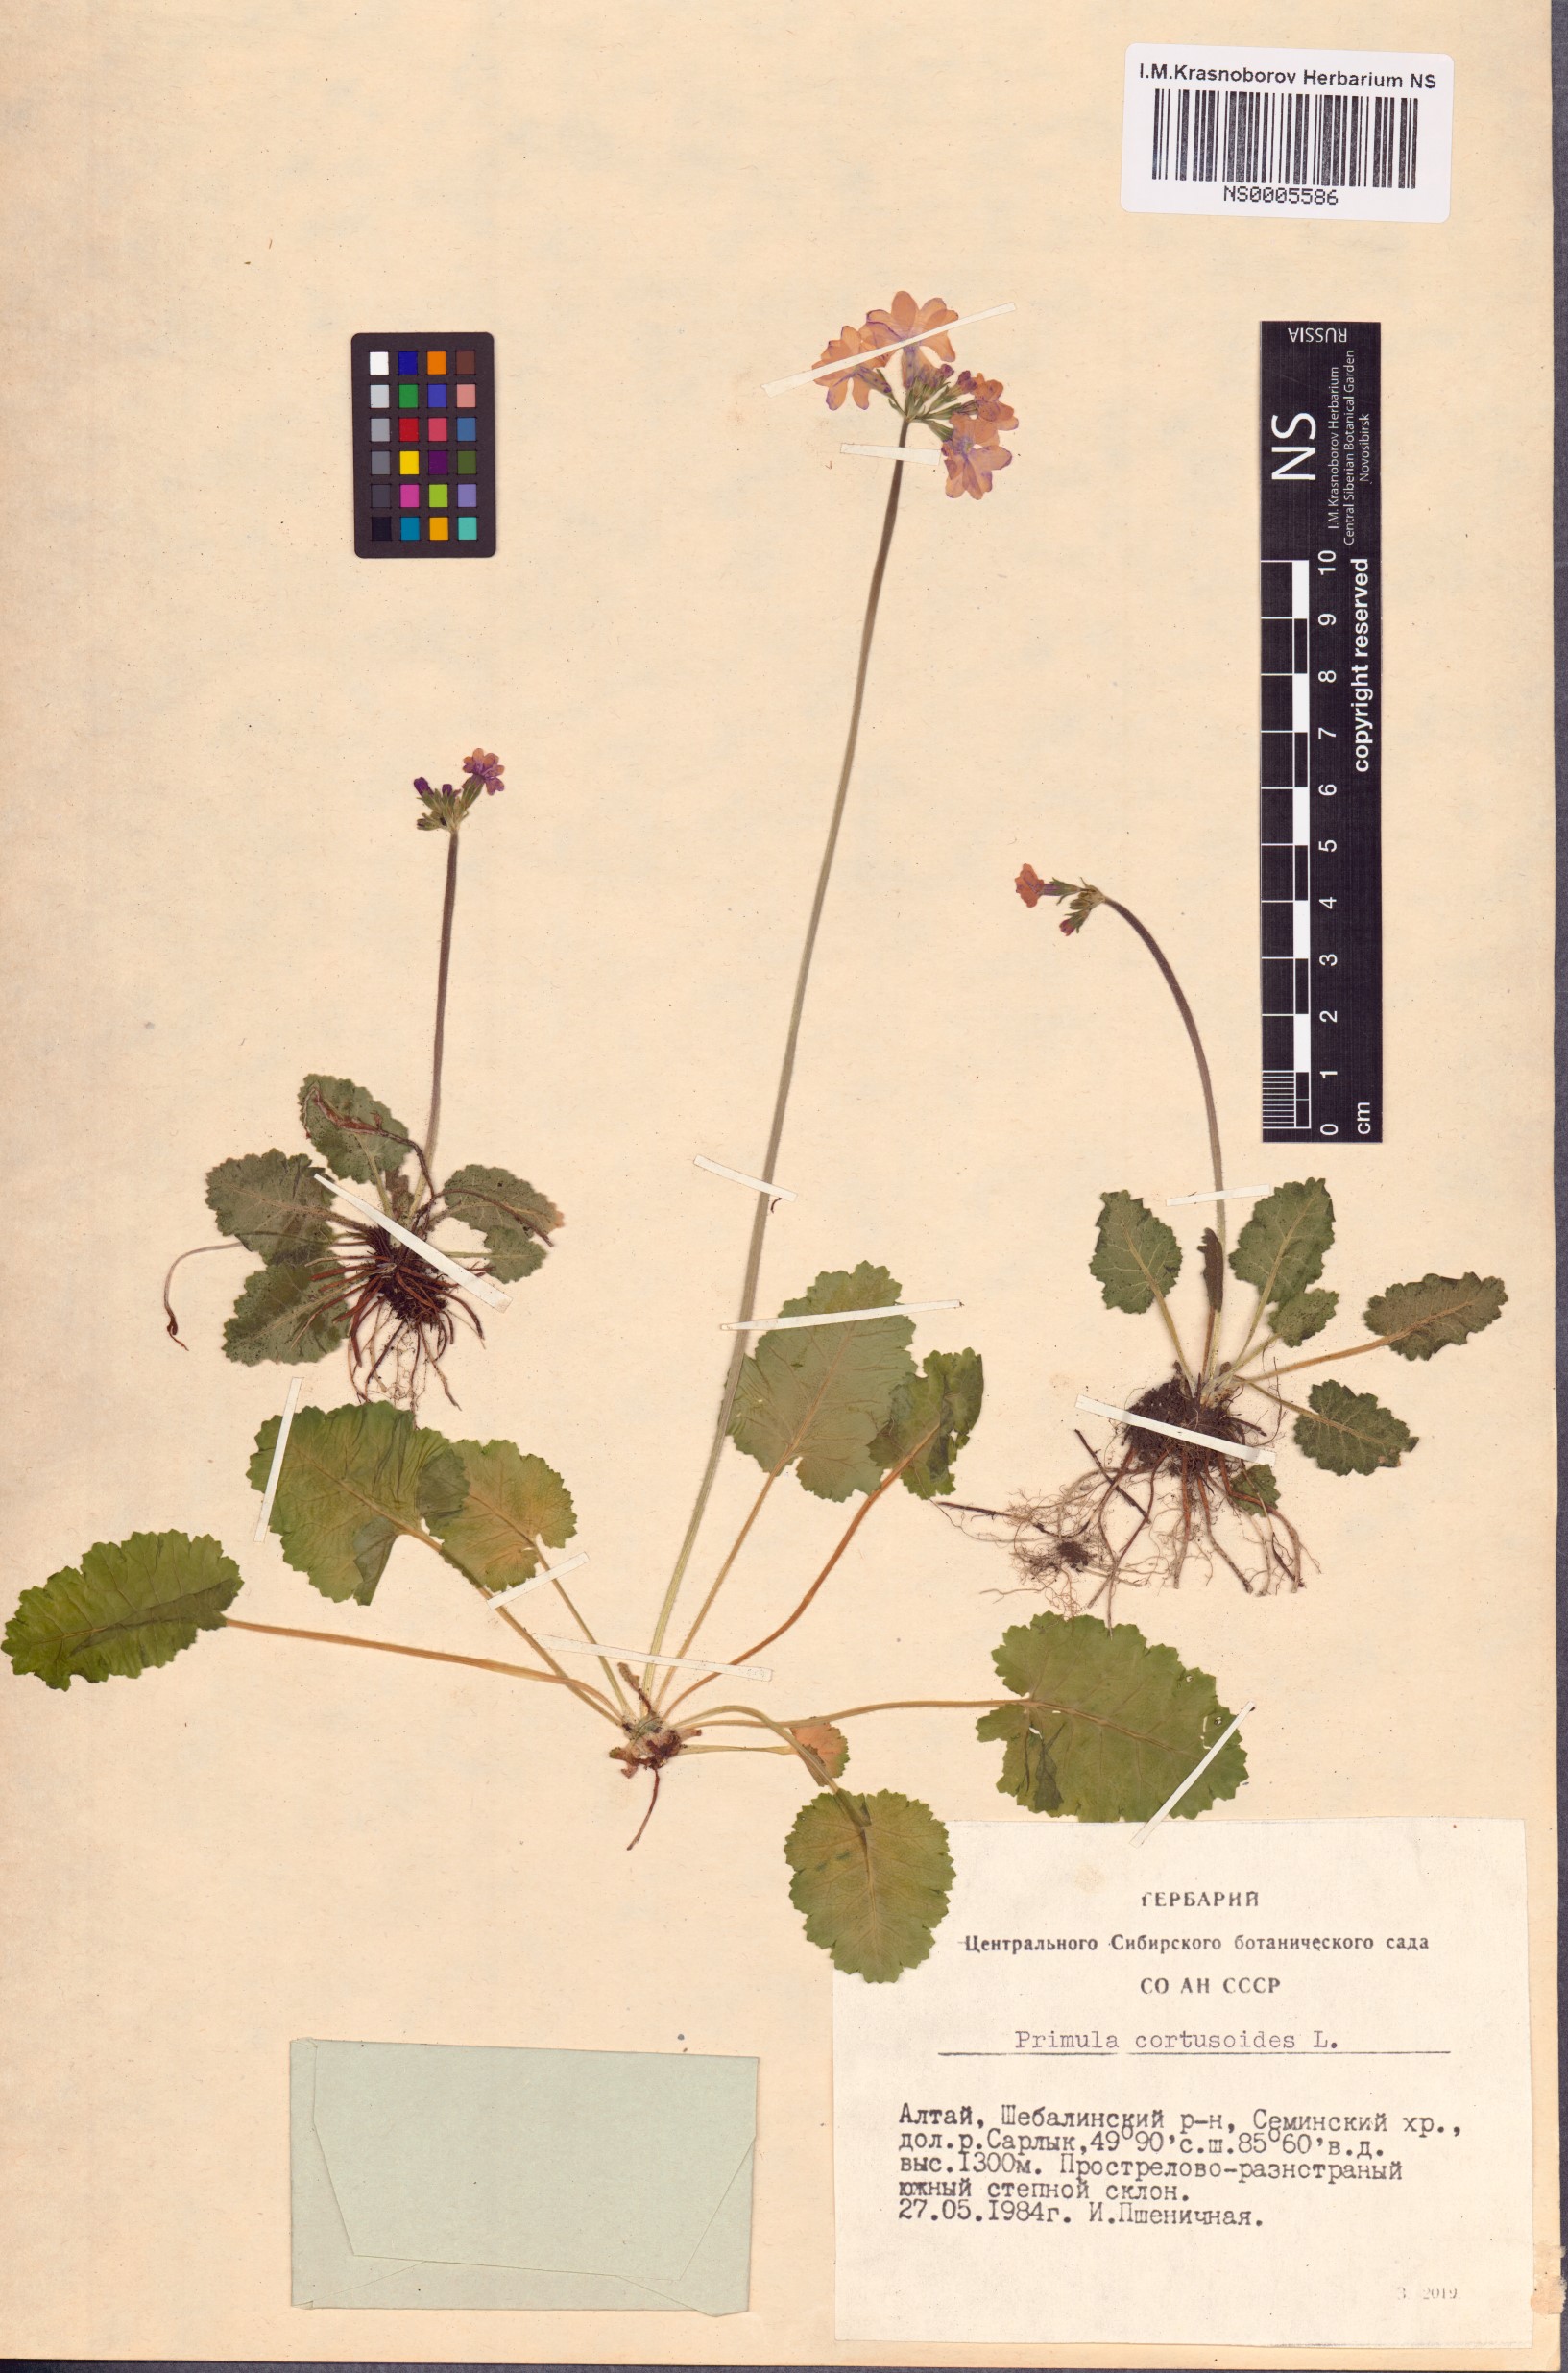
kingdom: Plantae
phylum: Tracheophyta
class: Magnoliopsida
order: Ericales
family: Primulaceae
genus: Primula
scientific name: Primula cortusoides
